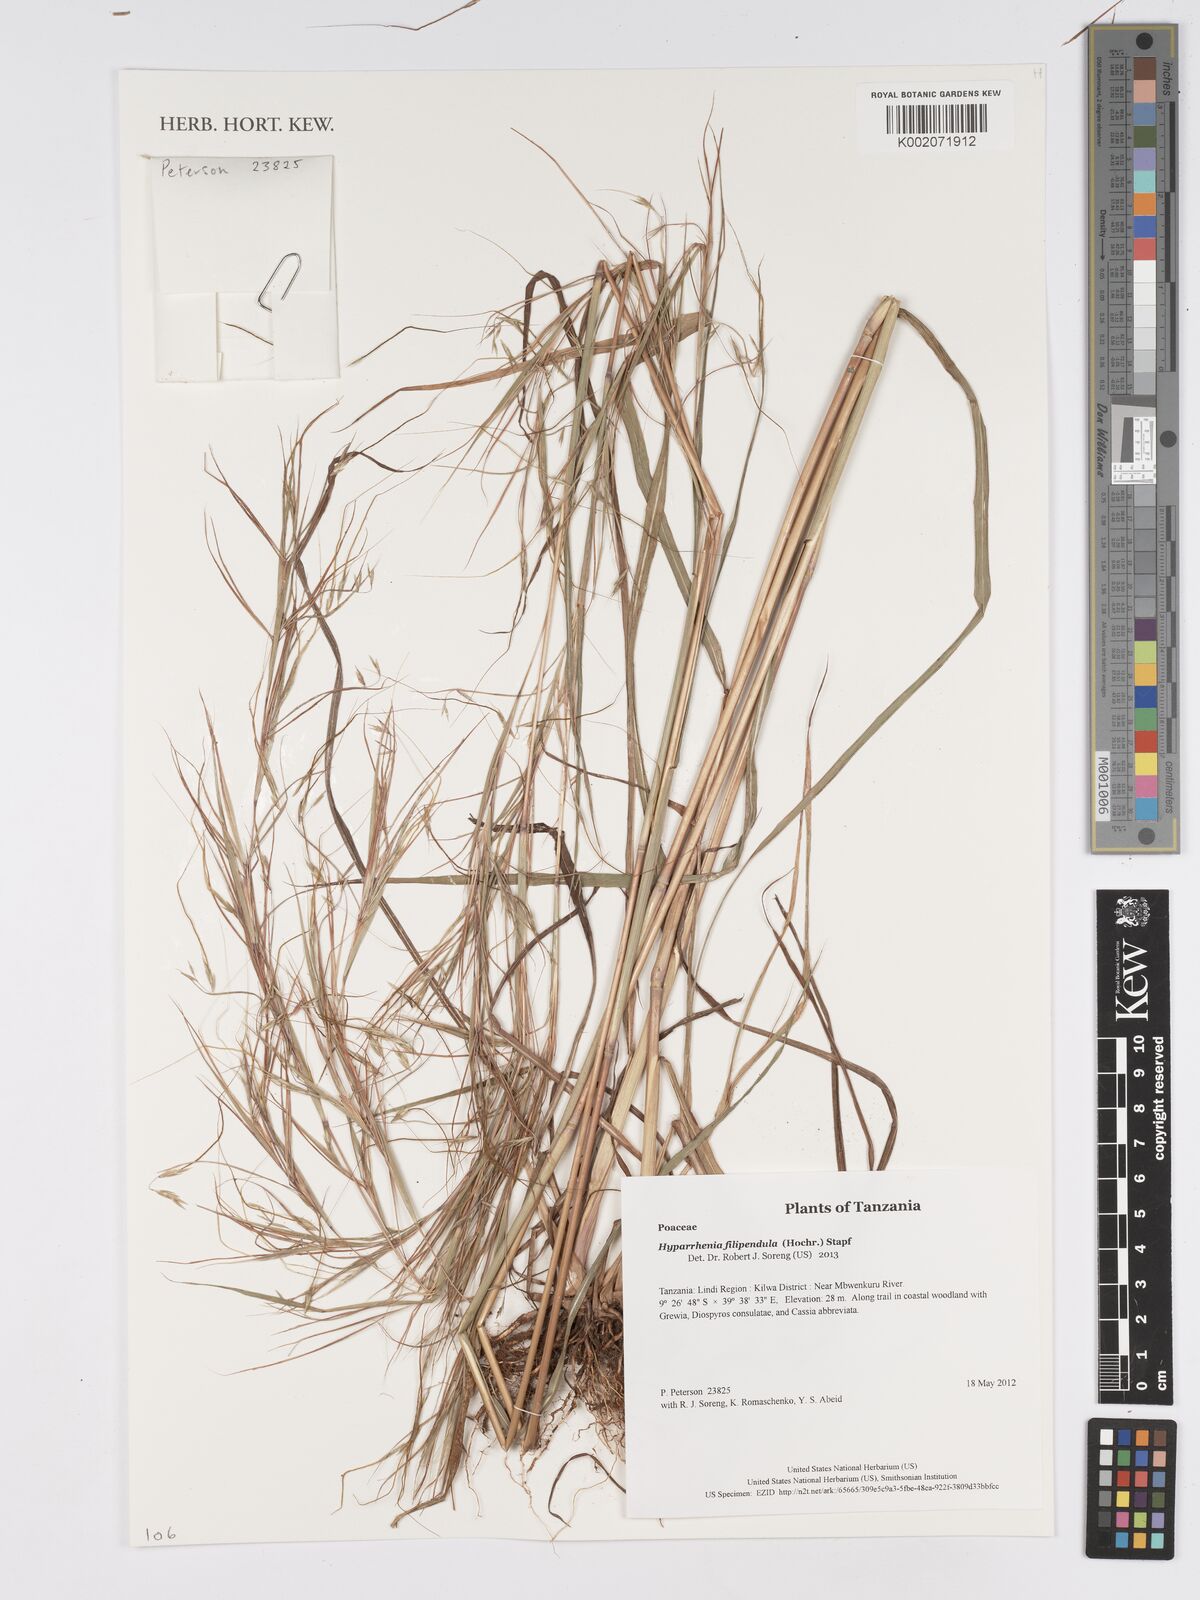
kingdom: Plantae
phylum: Tracheophyta
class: Liliopsida
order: Poales
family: Poaceae
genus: Hyparrhenia
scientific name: Hyparrhenia filipendula
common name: Tambookie grass
